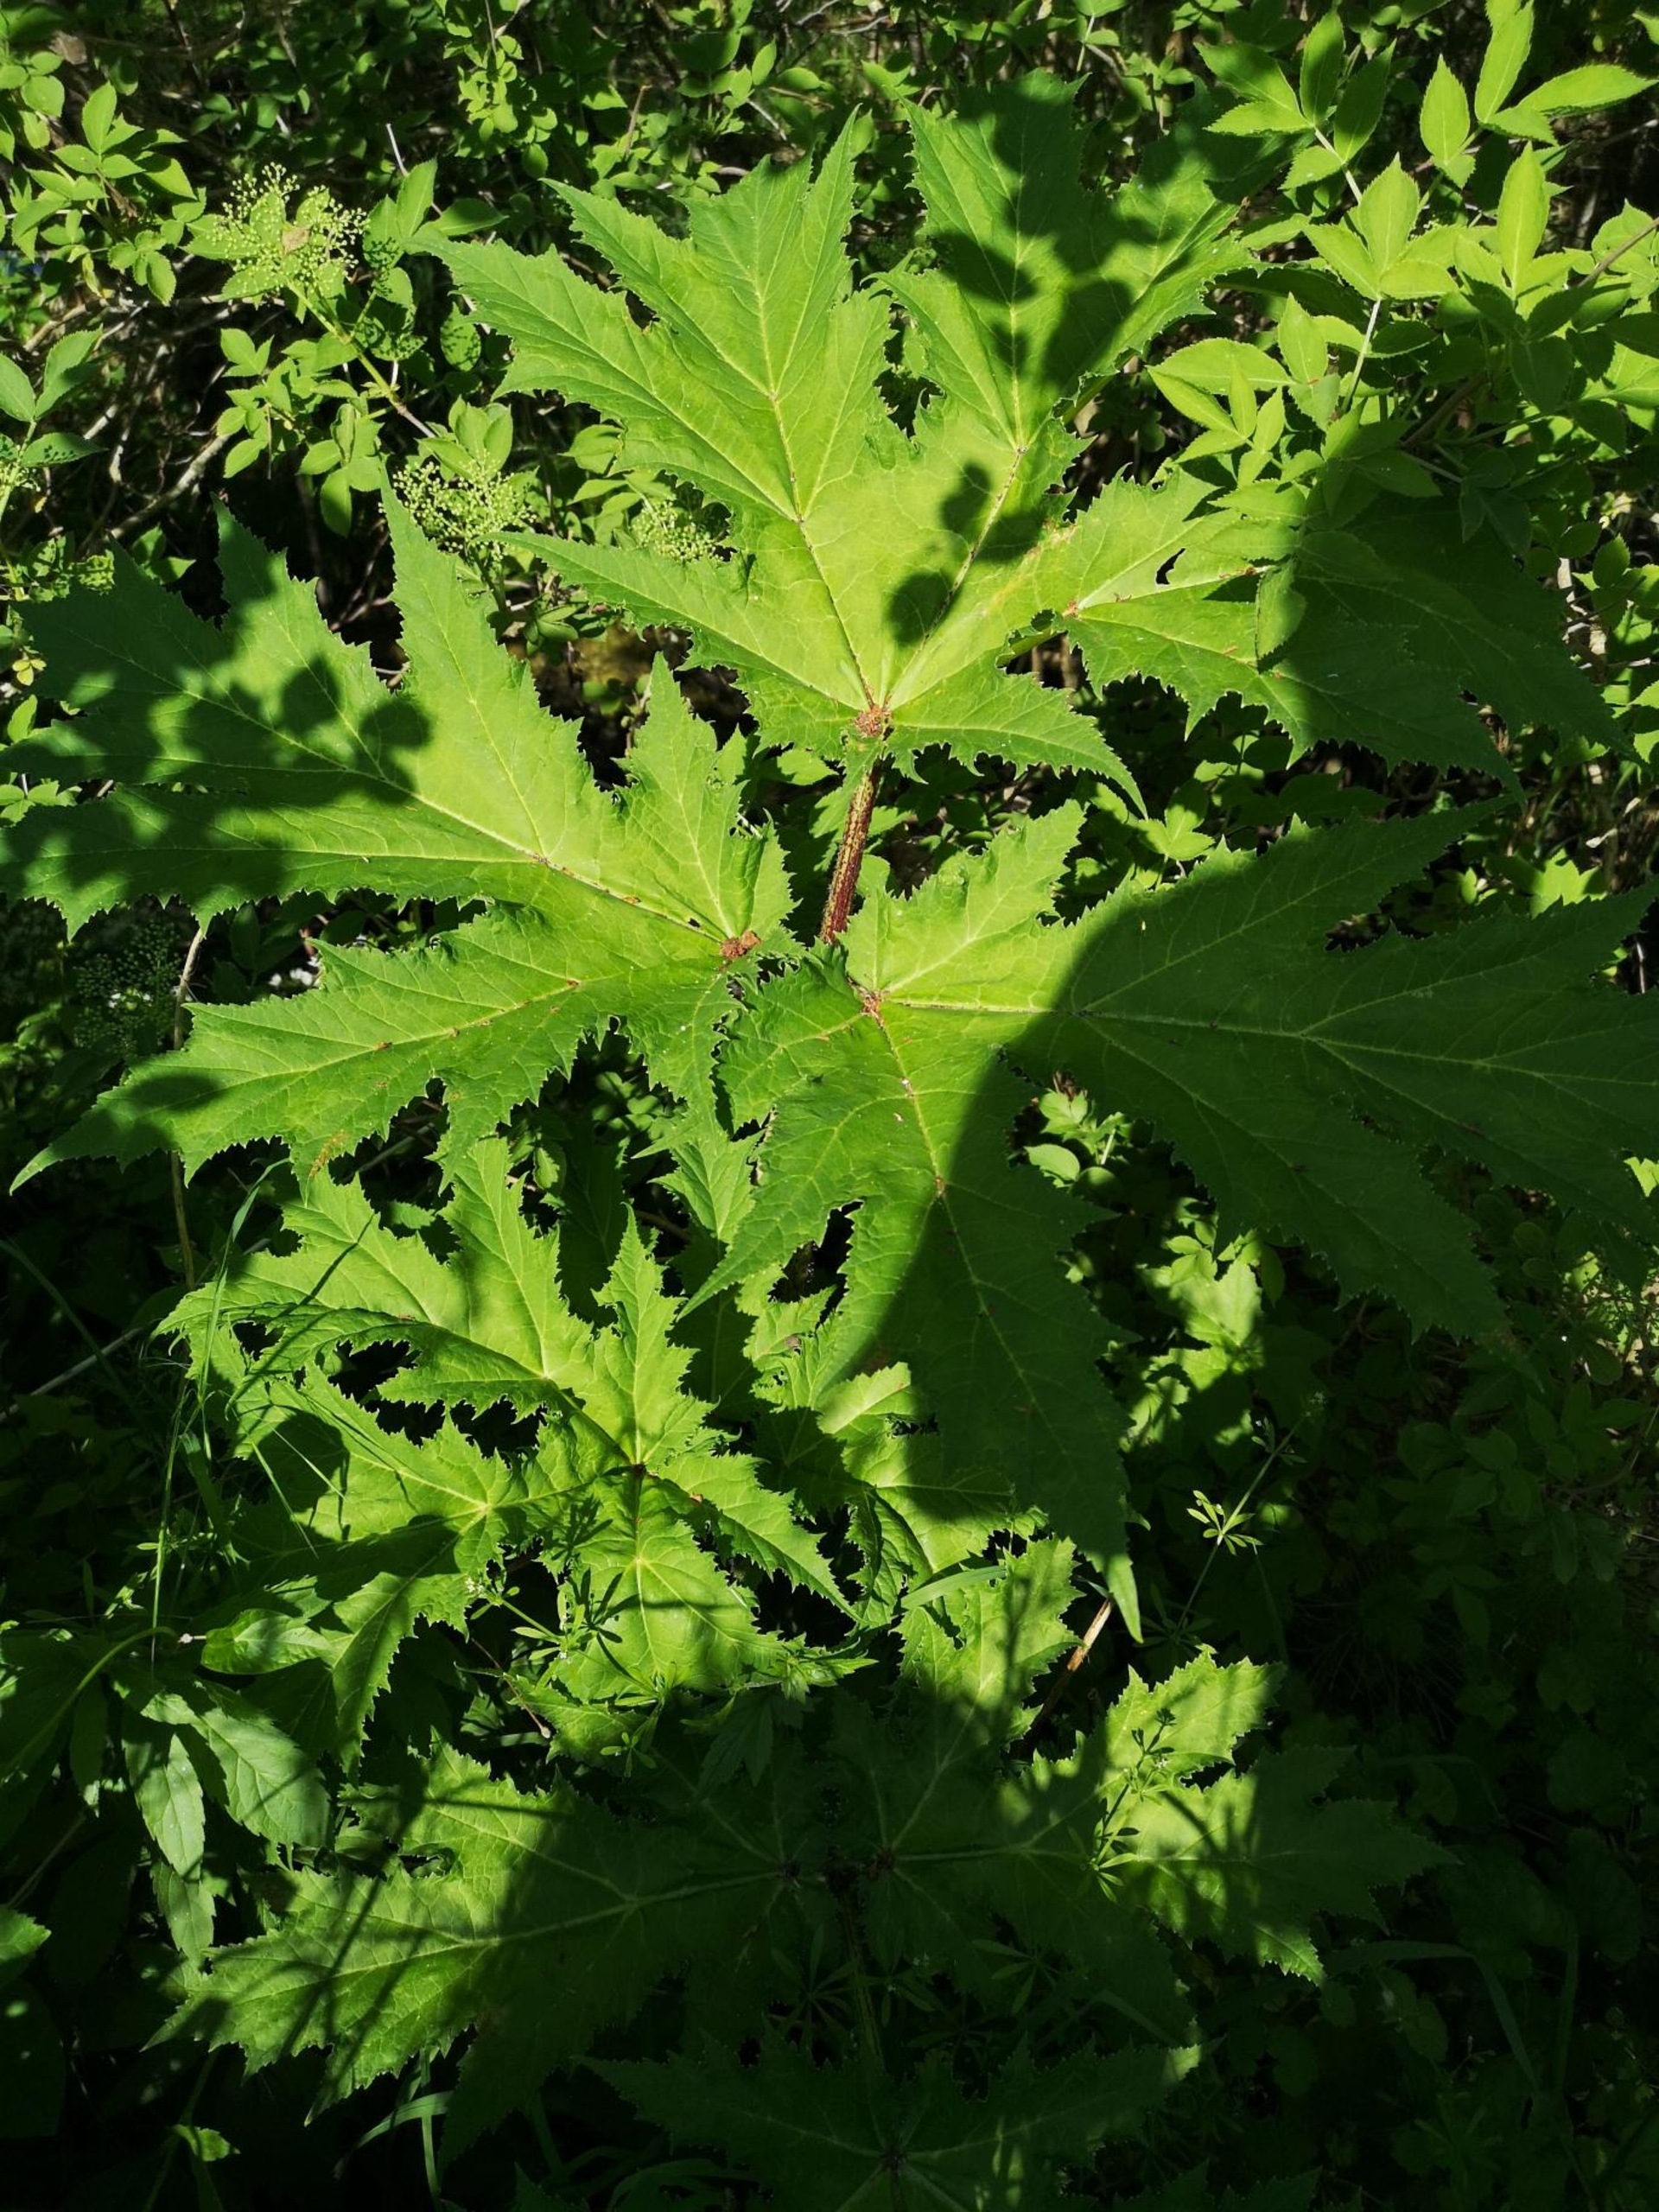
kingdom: Plantae
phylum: Tracheophyta
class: Magnoliopsida
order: Apiales
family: Apiaceae
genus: Heracleum
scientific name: Heracleum mantegazzianum
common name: Kæmpe-bjørneklo
